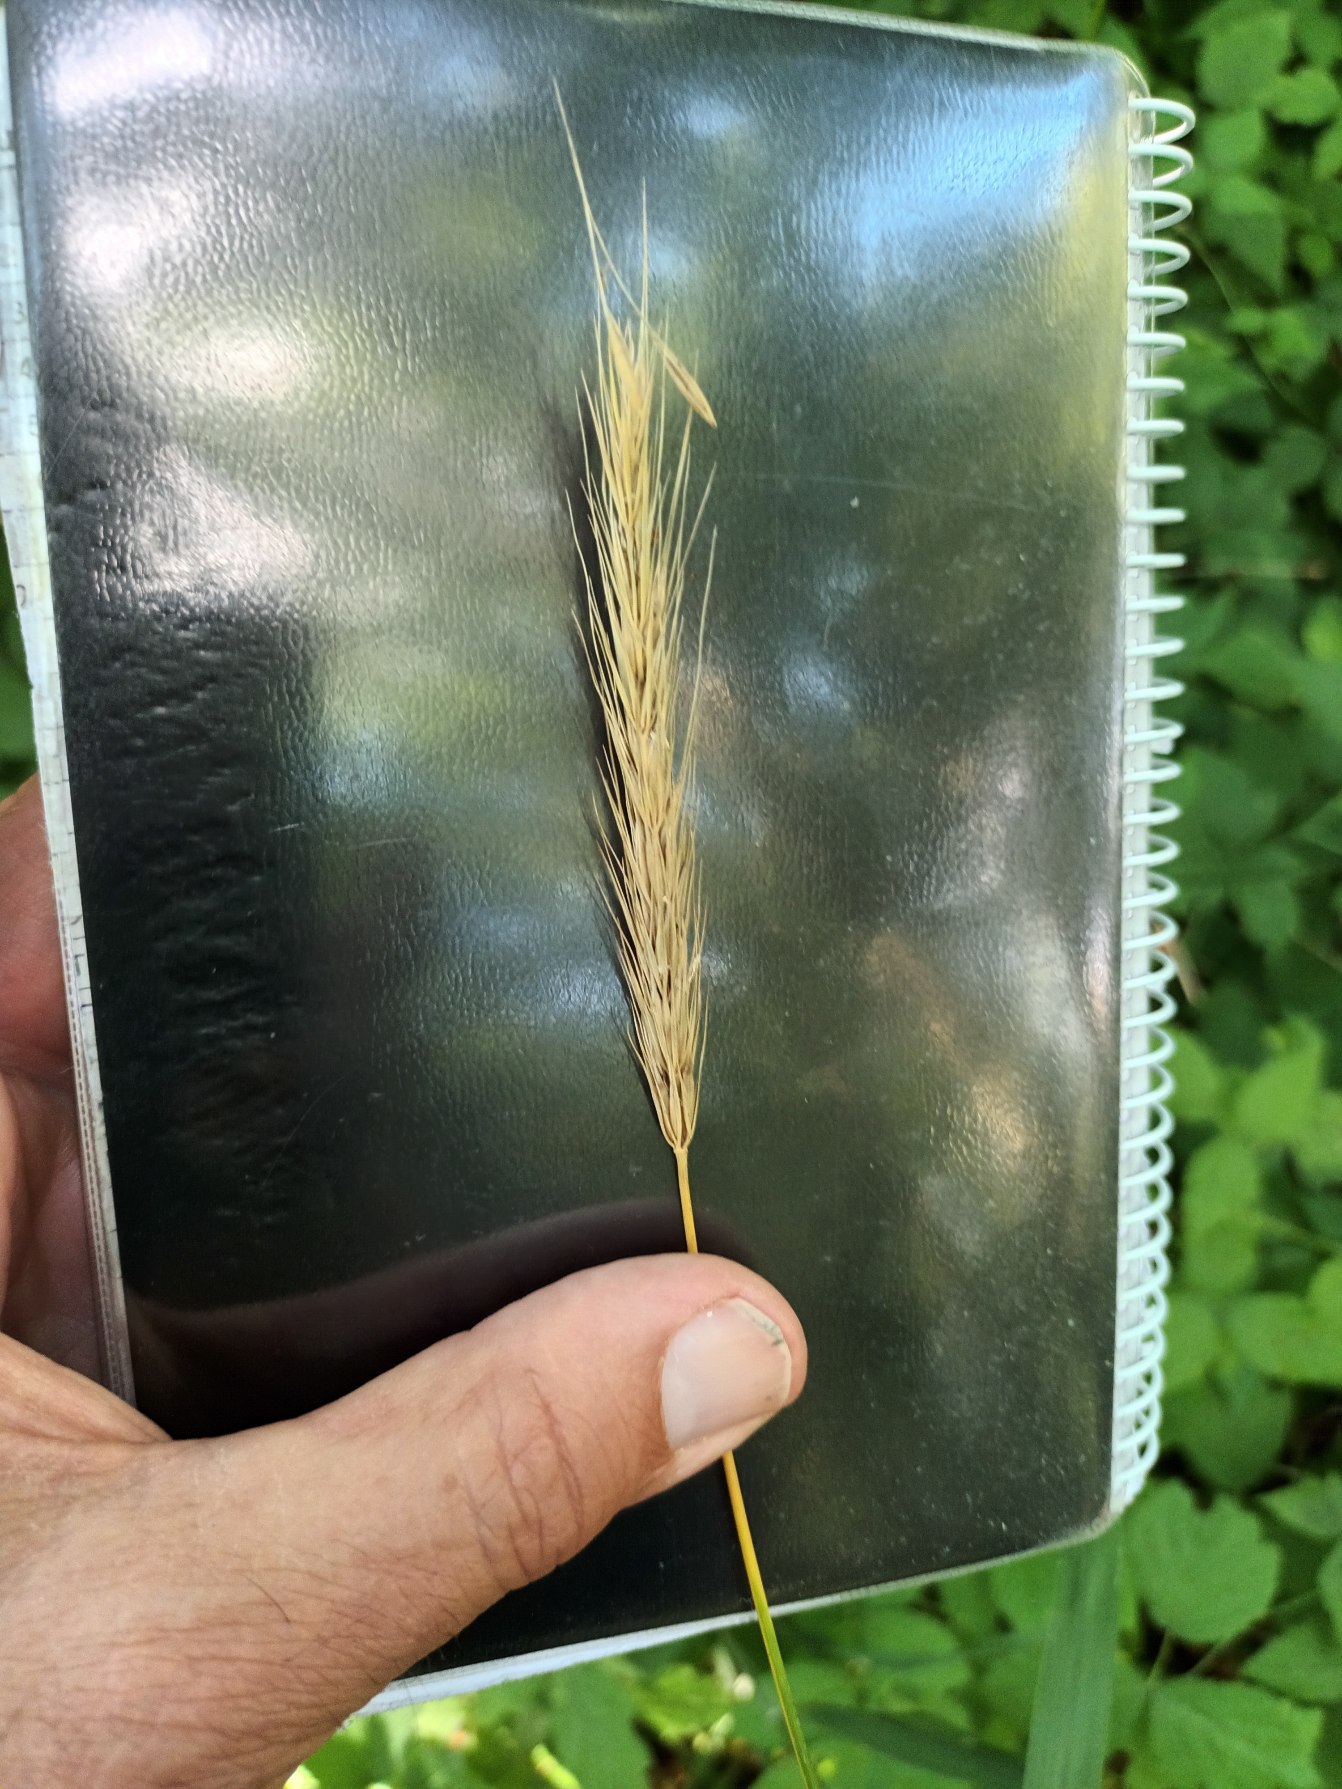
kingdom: Plantae
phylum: Tracheophyta
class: Liliopsida
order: Poales
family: Poaceae
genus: Hordelymus
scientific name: Hordelymus europaeus
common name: Skovbyg
